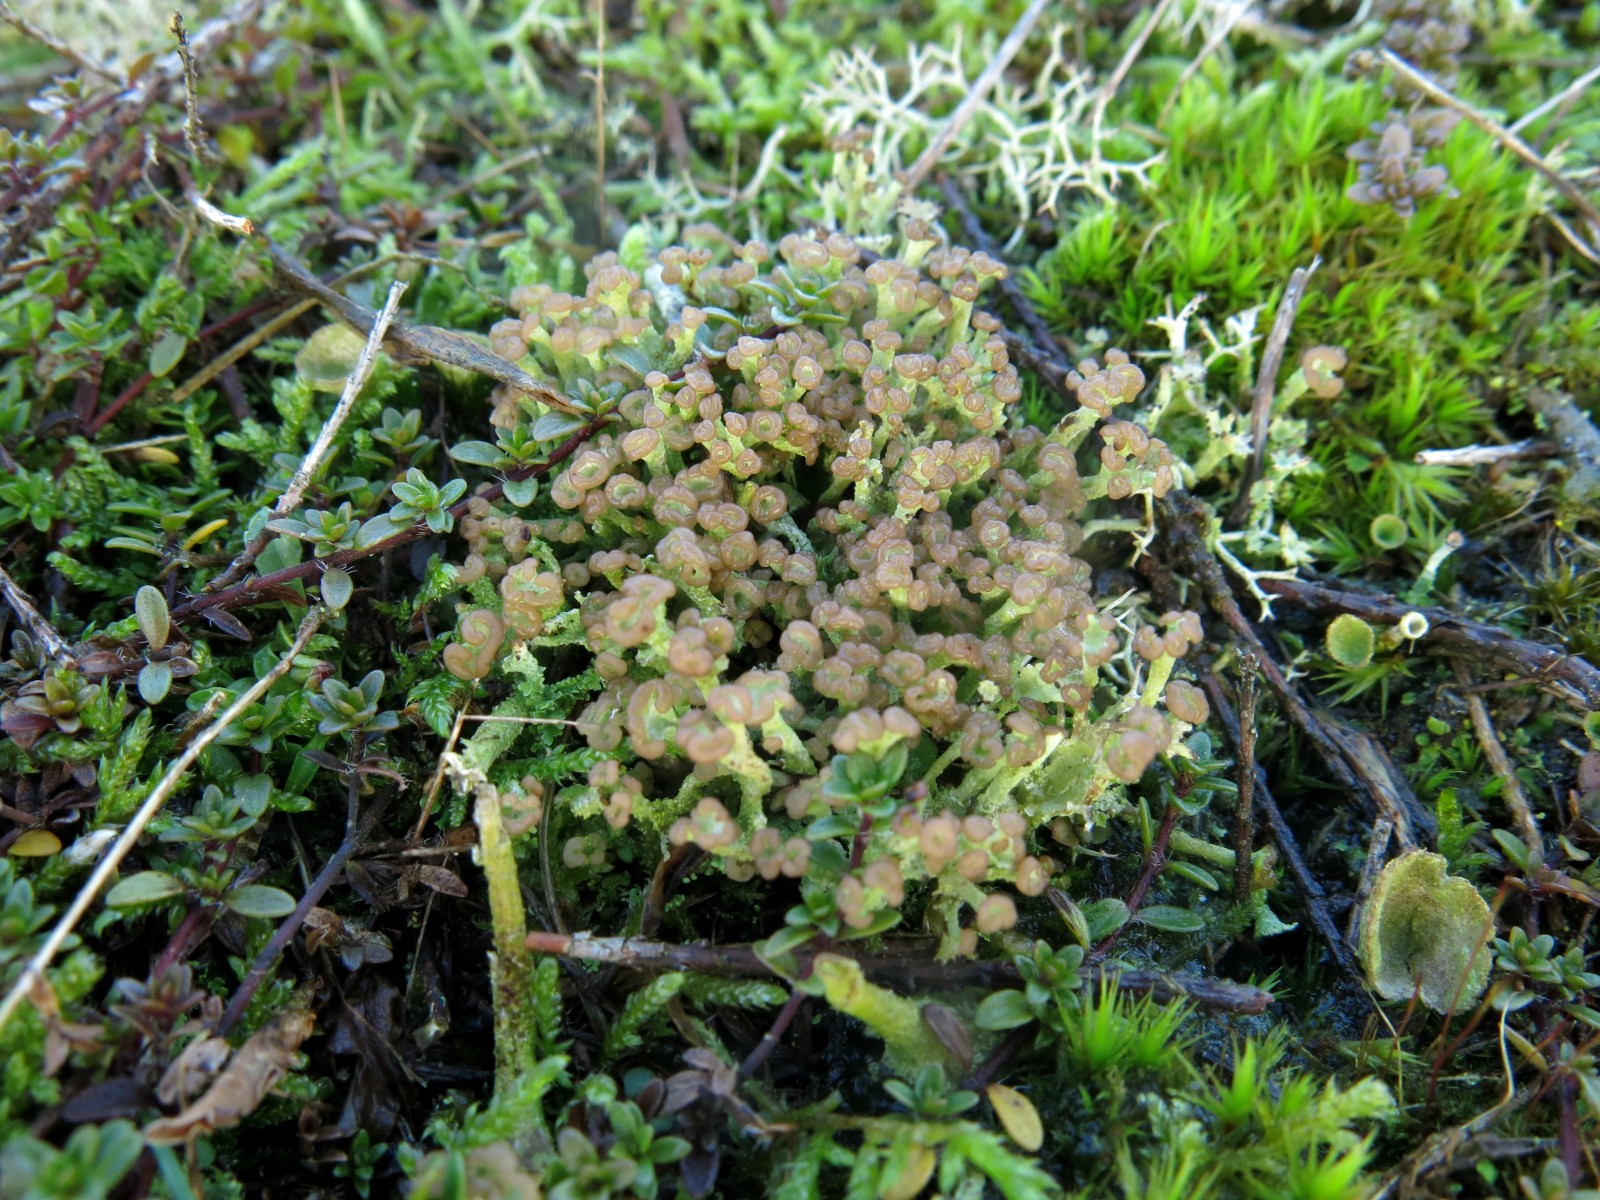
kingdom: Fungi
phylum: Ascomycota
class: Lecanoromycetes
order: Lecanorales
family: Cladoniaceae
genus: Cladonia
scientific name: Cladonia ramulosa
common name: kliddet bægerlav
